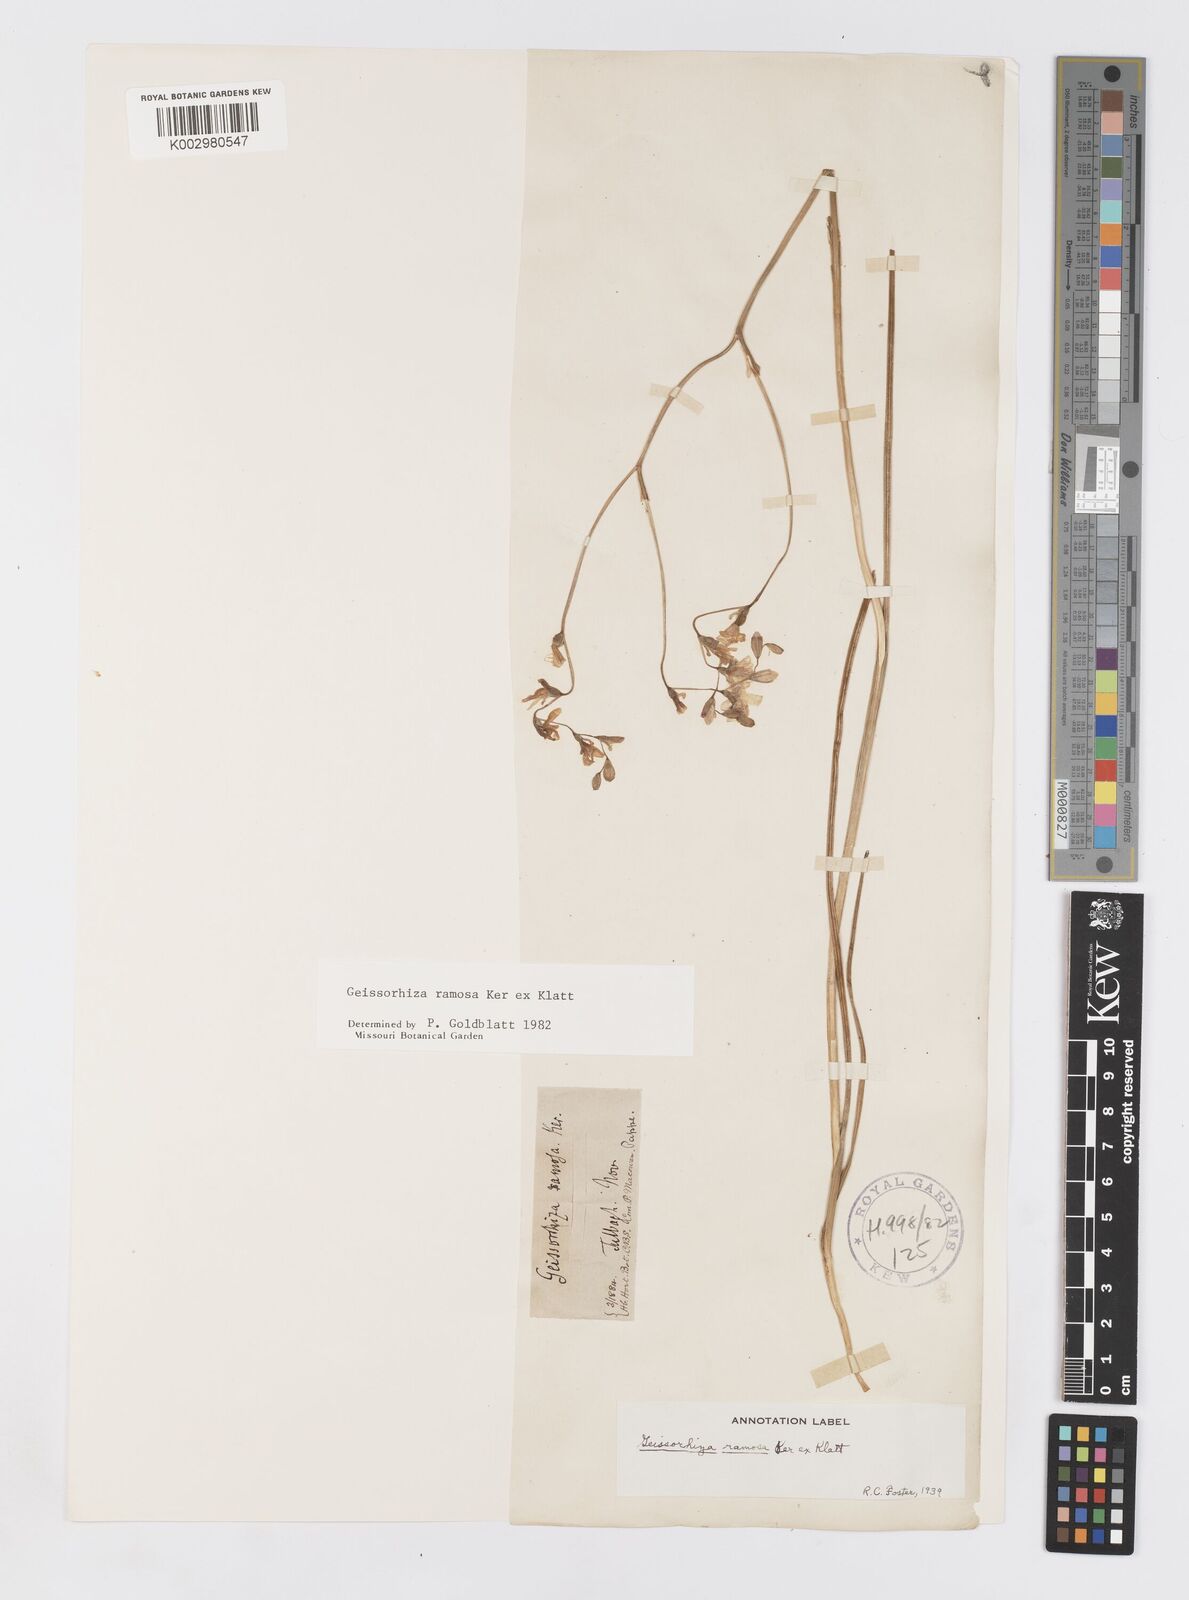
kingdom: Plantae
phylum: Tracheophyta
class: Liliopsida
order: Asparagales
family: Iridaceae
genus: Geissorhiza
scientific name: Geissorhiza ramosa
